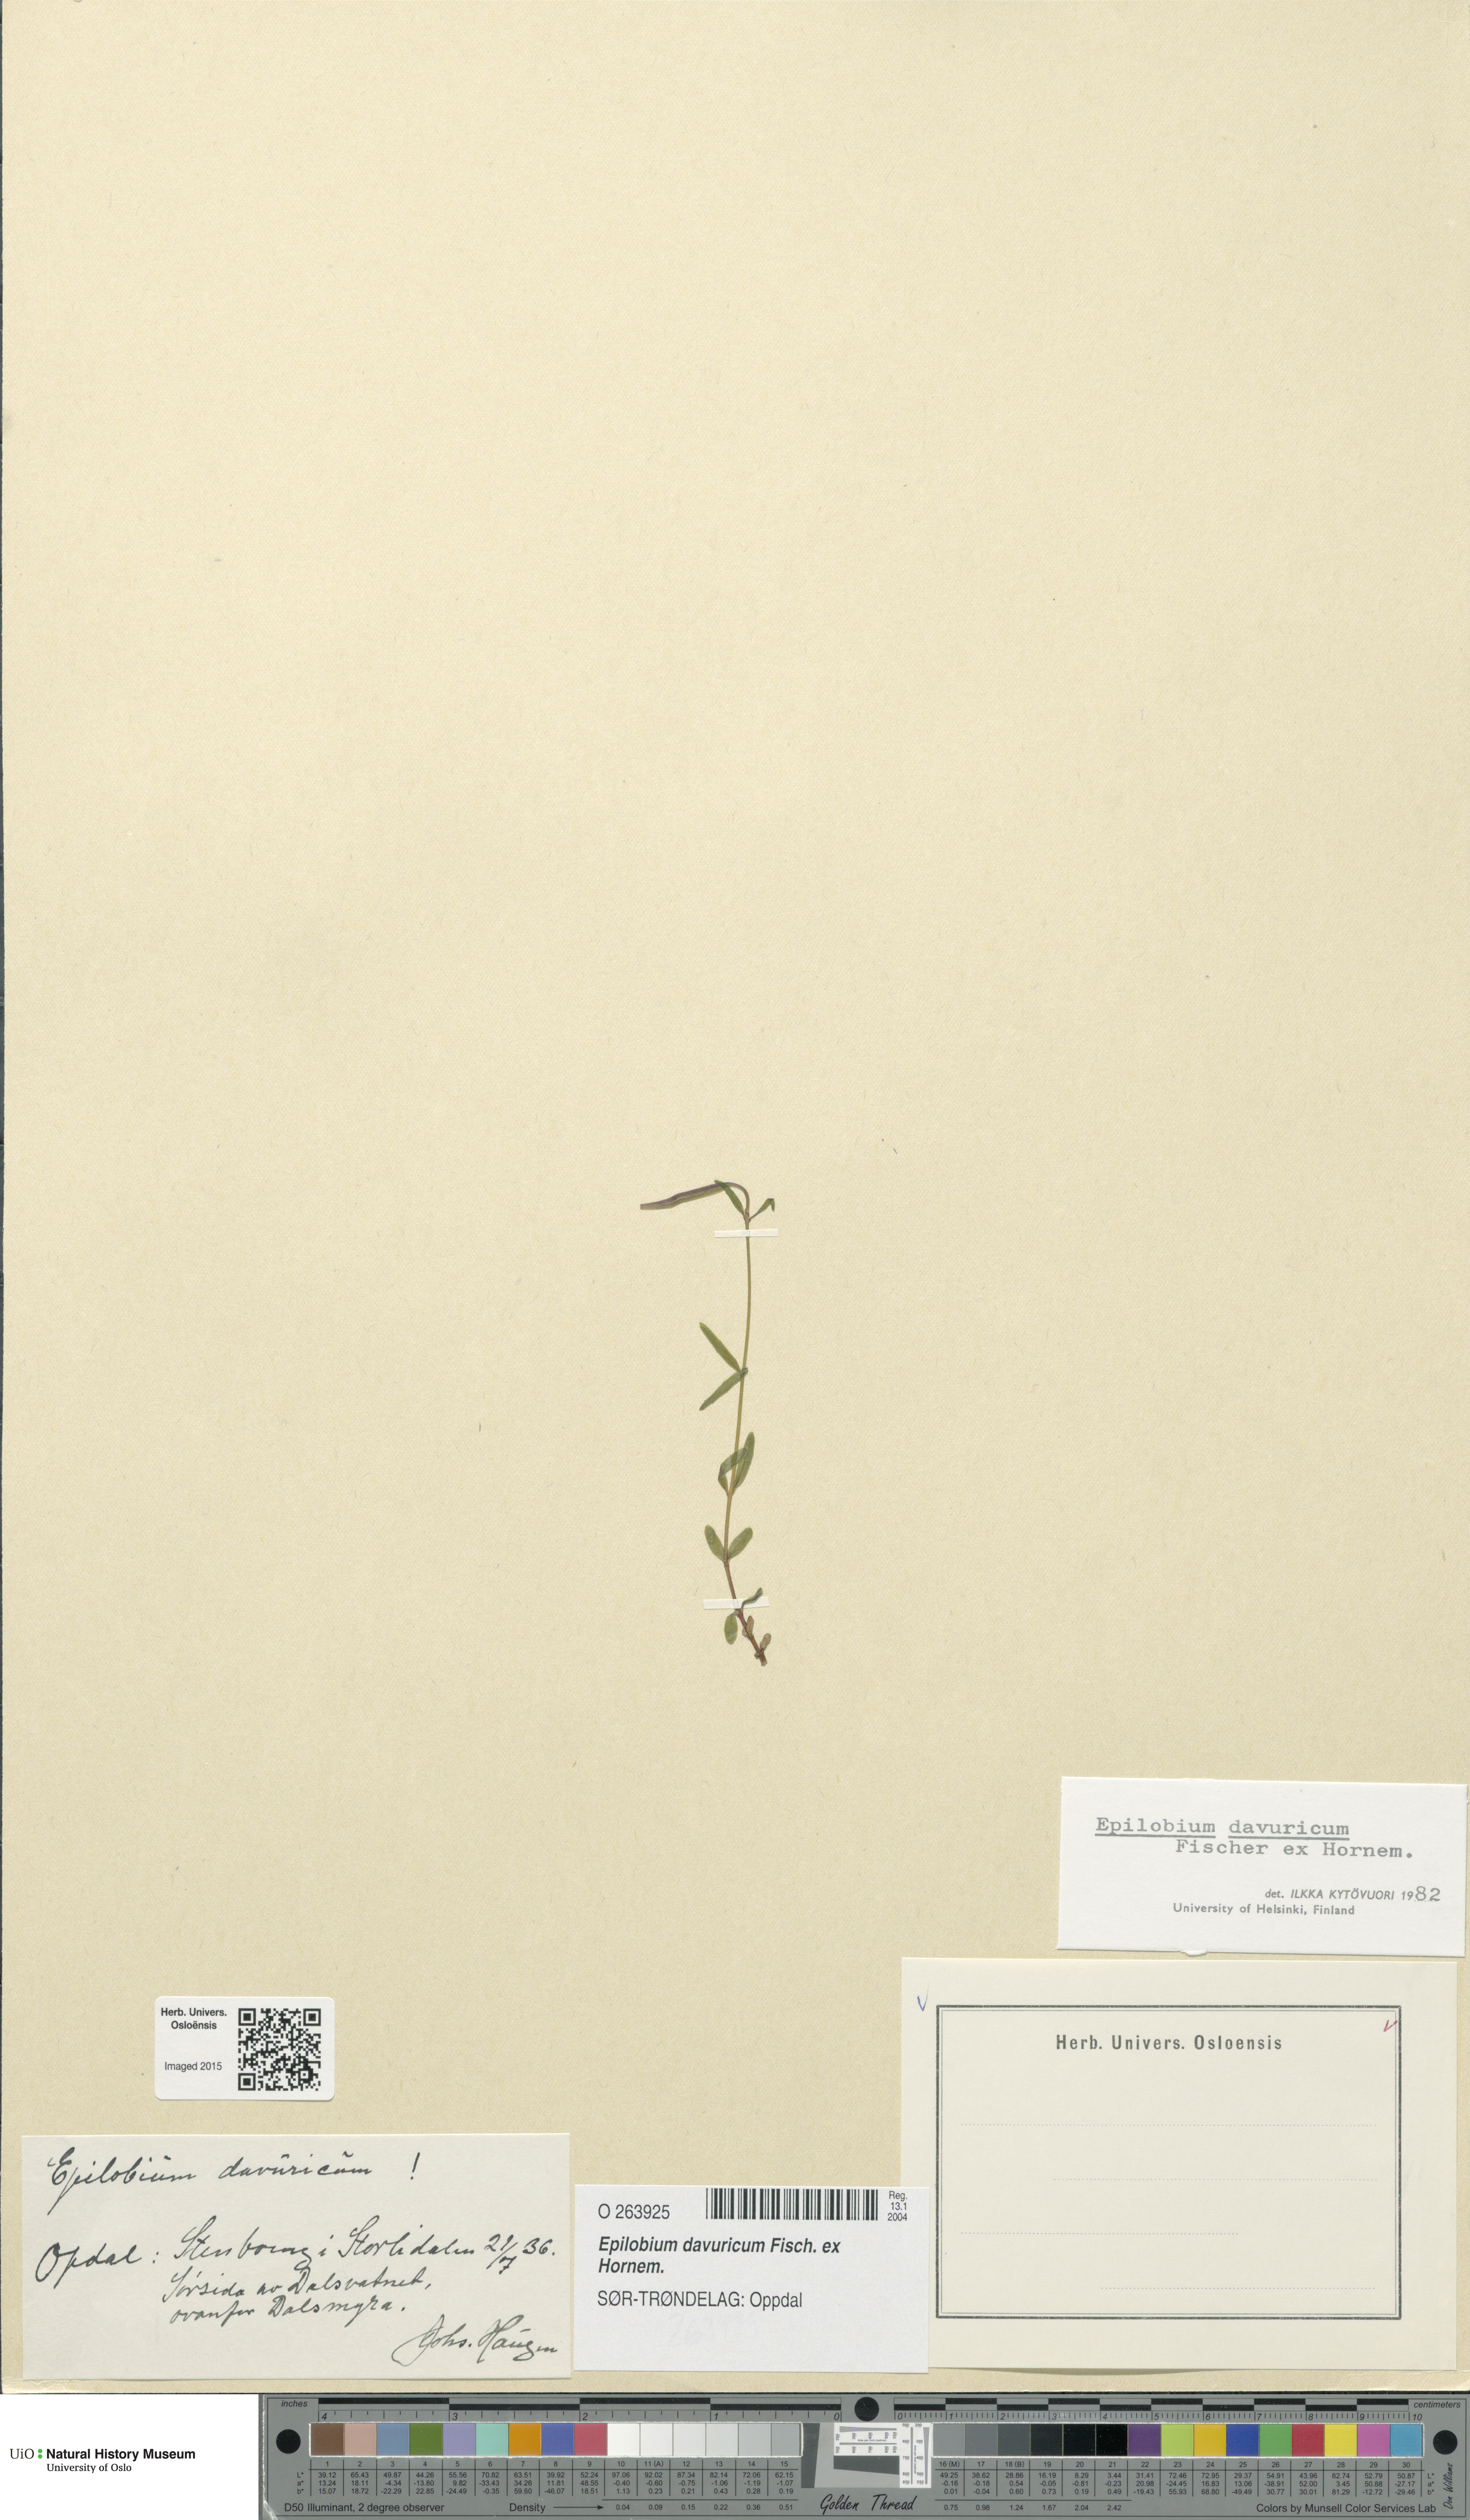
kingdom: Plantae
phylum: Tracheophyta
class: Magnoliopsida
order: Myrtales
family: Onagraceae
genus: Epilobium
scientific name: Epilobium davuricum
